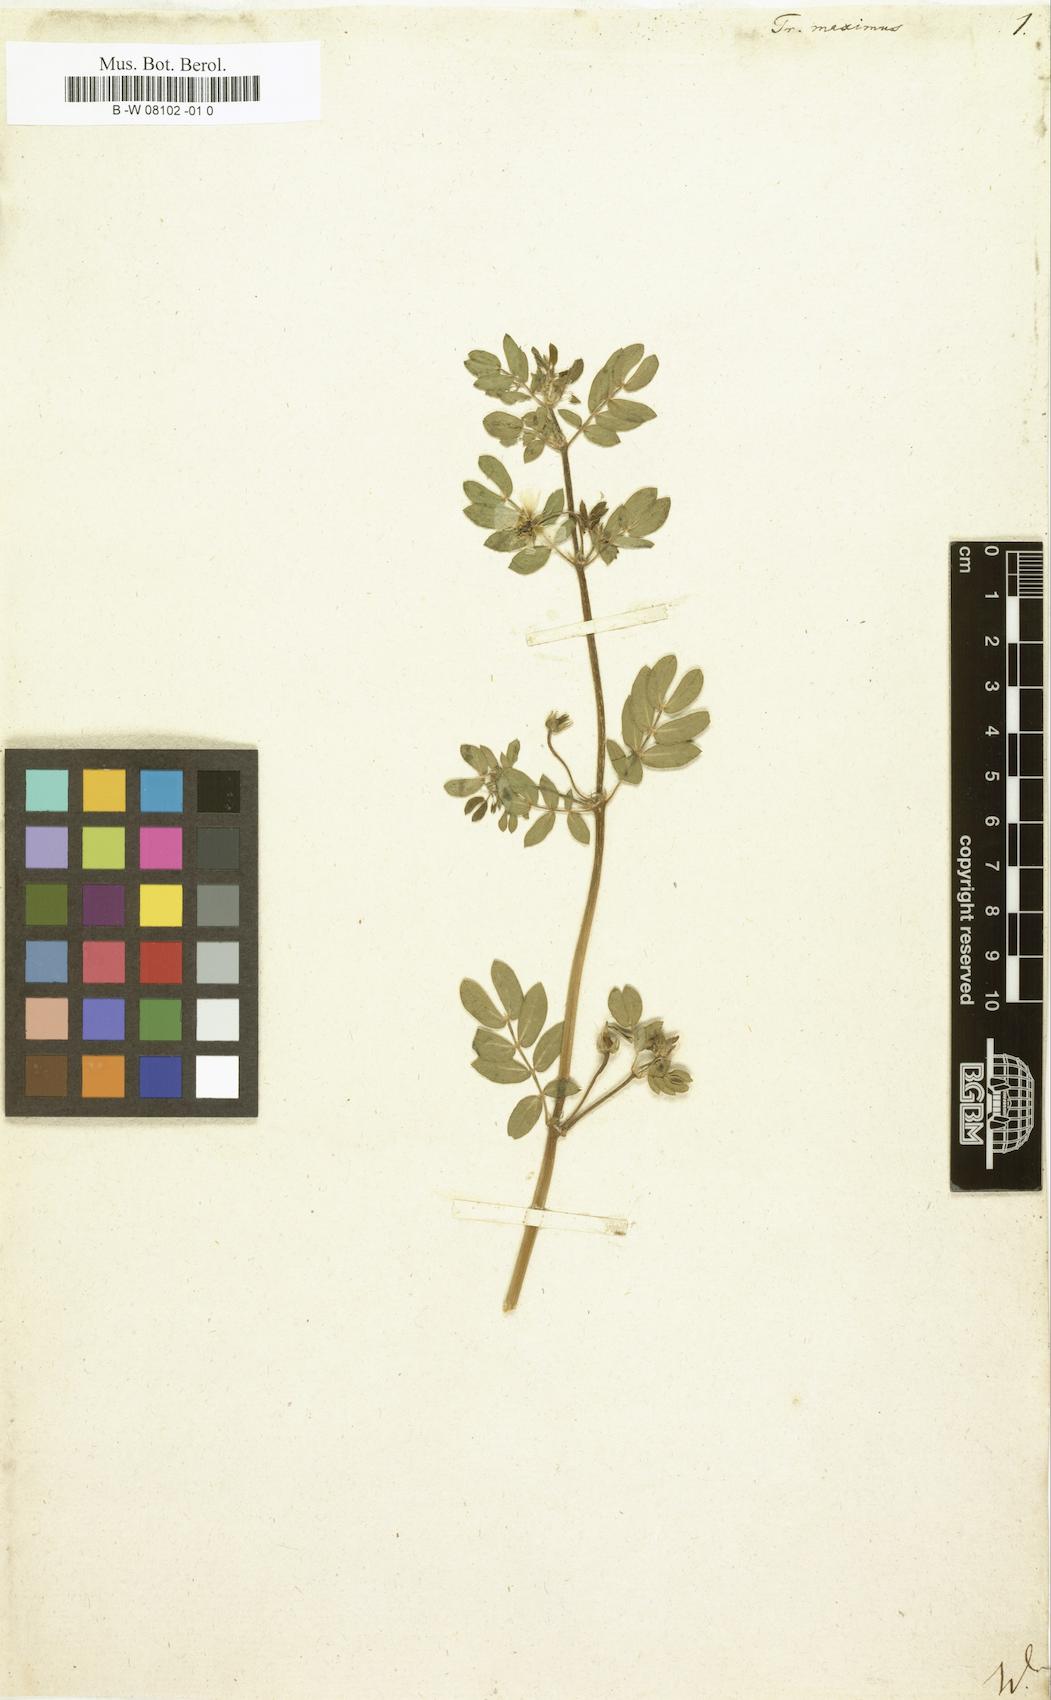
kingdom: Plantae
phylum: Tracheophyta
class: Magnoliopsida
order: Zygophyllales
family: Zygophyllaceae
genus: Kallstroemia
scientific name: Kallstroemia maxima
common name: Big caltropa
